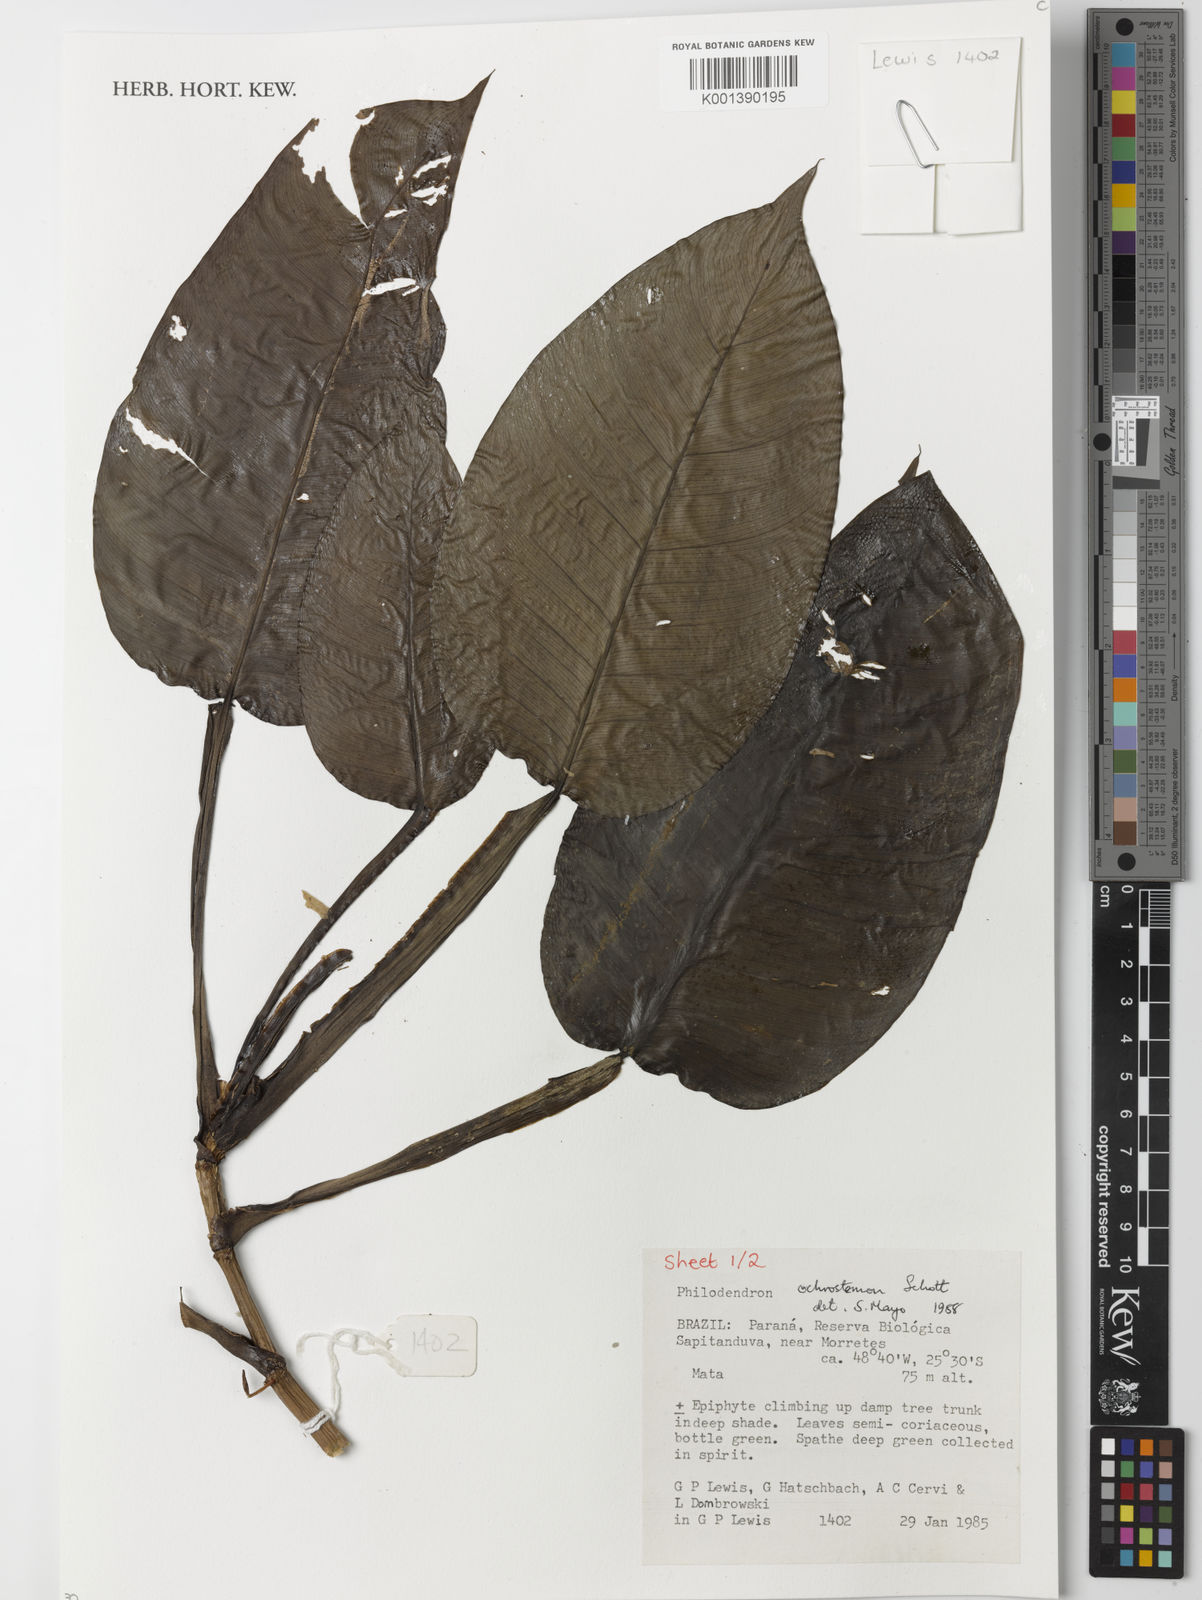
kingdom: Plantae
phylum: Tracheophyta
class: Liliopsida
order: Alismatales
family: Araceae
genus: Philodendron
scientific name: Philodendron ochrostemon
